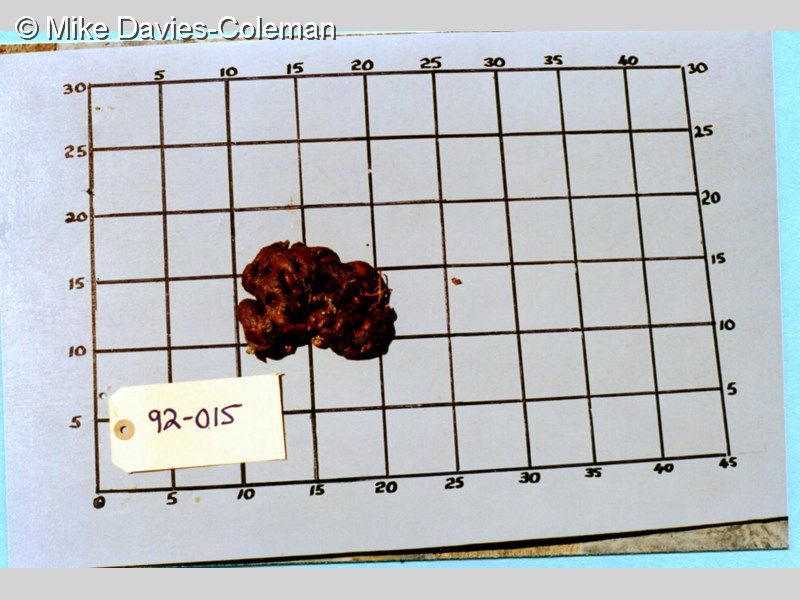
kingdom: Animalia
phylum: Chordata
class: Ascidiacea
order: Aplousobranchia
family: Polyclinidae
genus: Aplidiopsis
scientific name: Aplidiopsis
